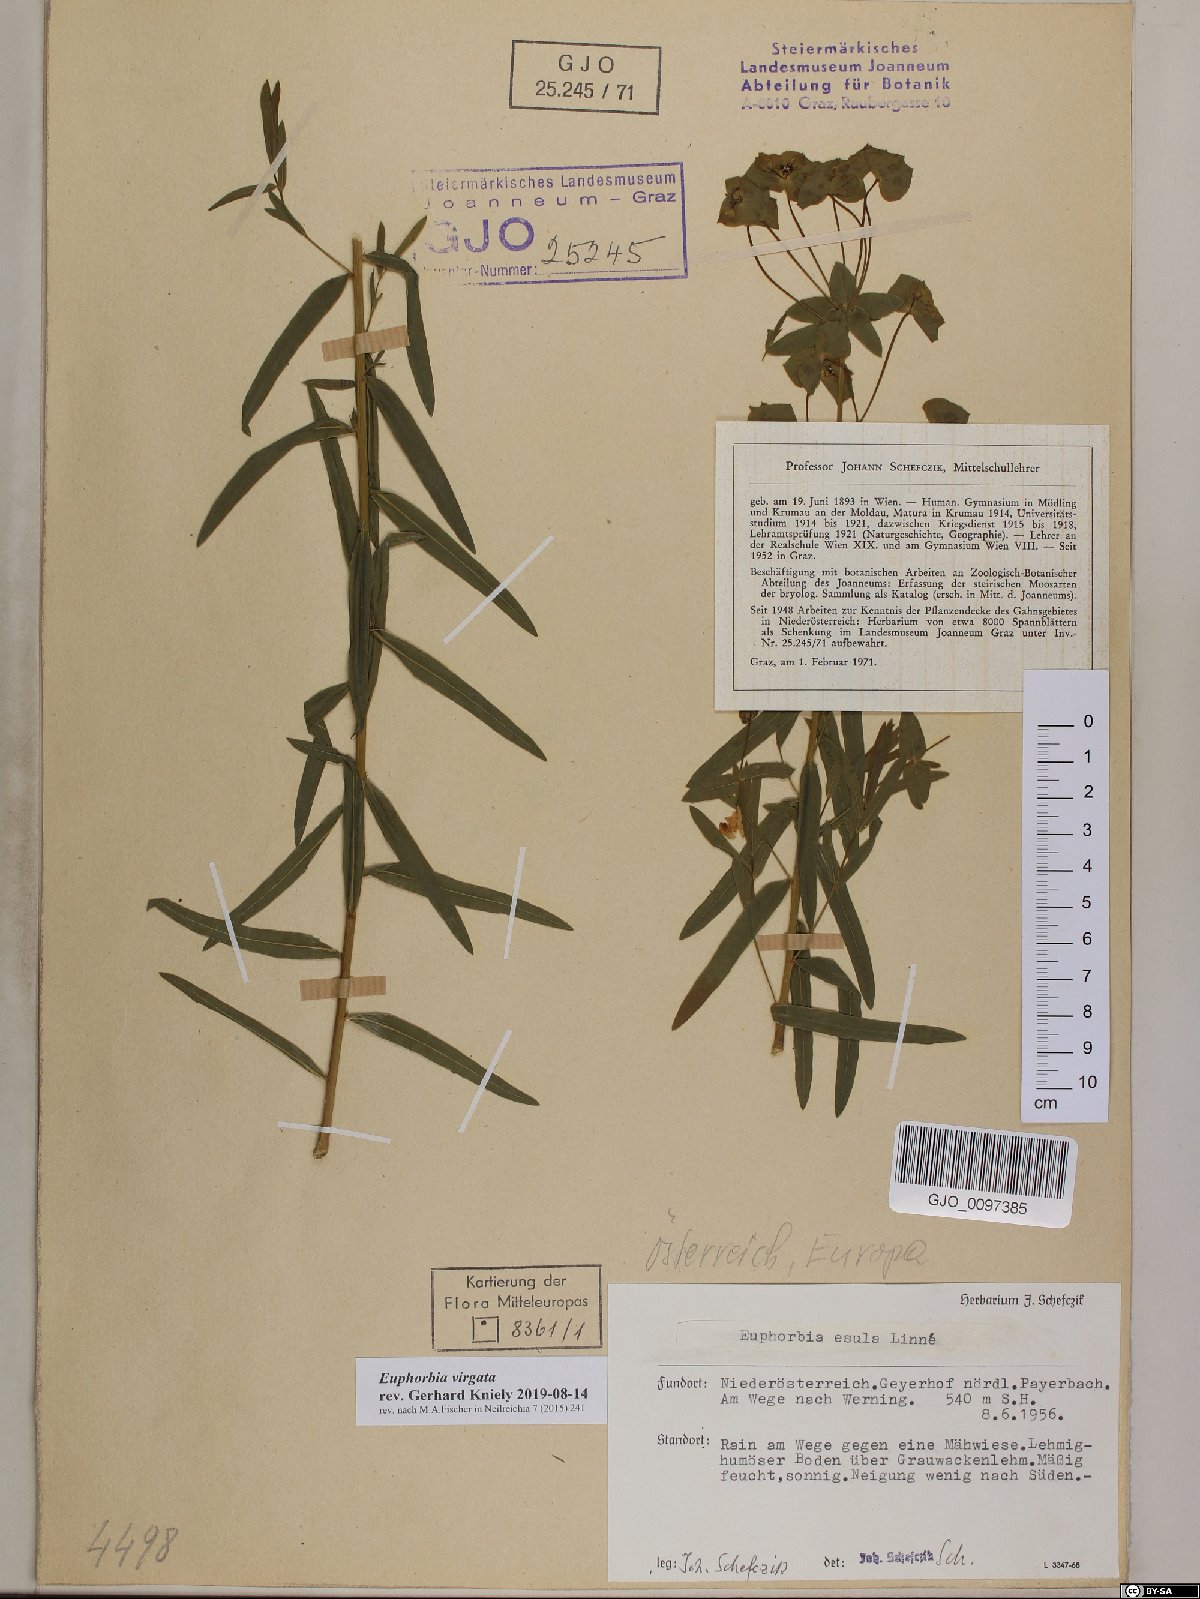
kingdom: Plantae
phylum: Tracheophyta
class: Magnoliopsida
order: Malpighiales
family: Euphorbiaceae
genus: Euphorbia
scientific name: Euphorbia virgata
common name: Leafy spurge
